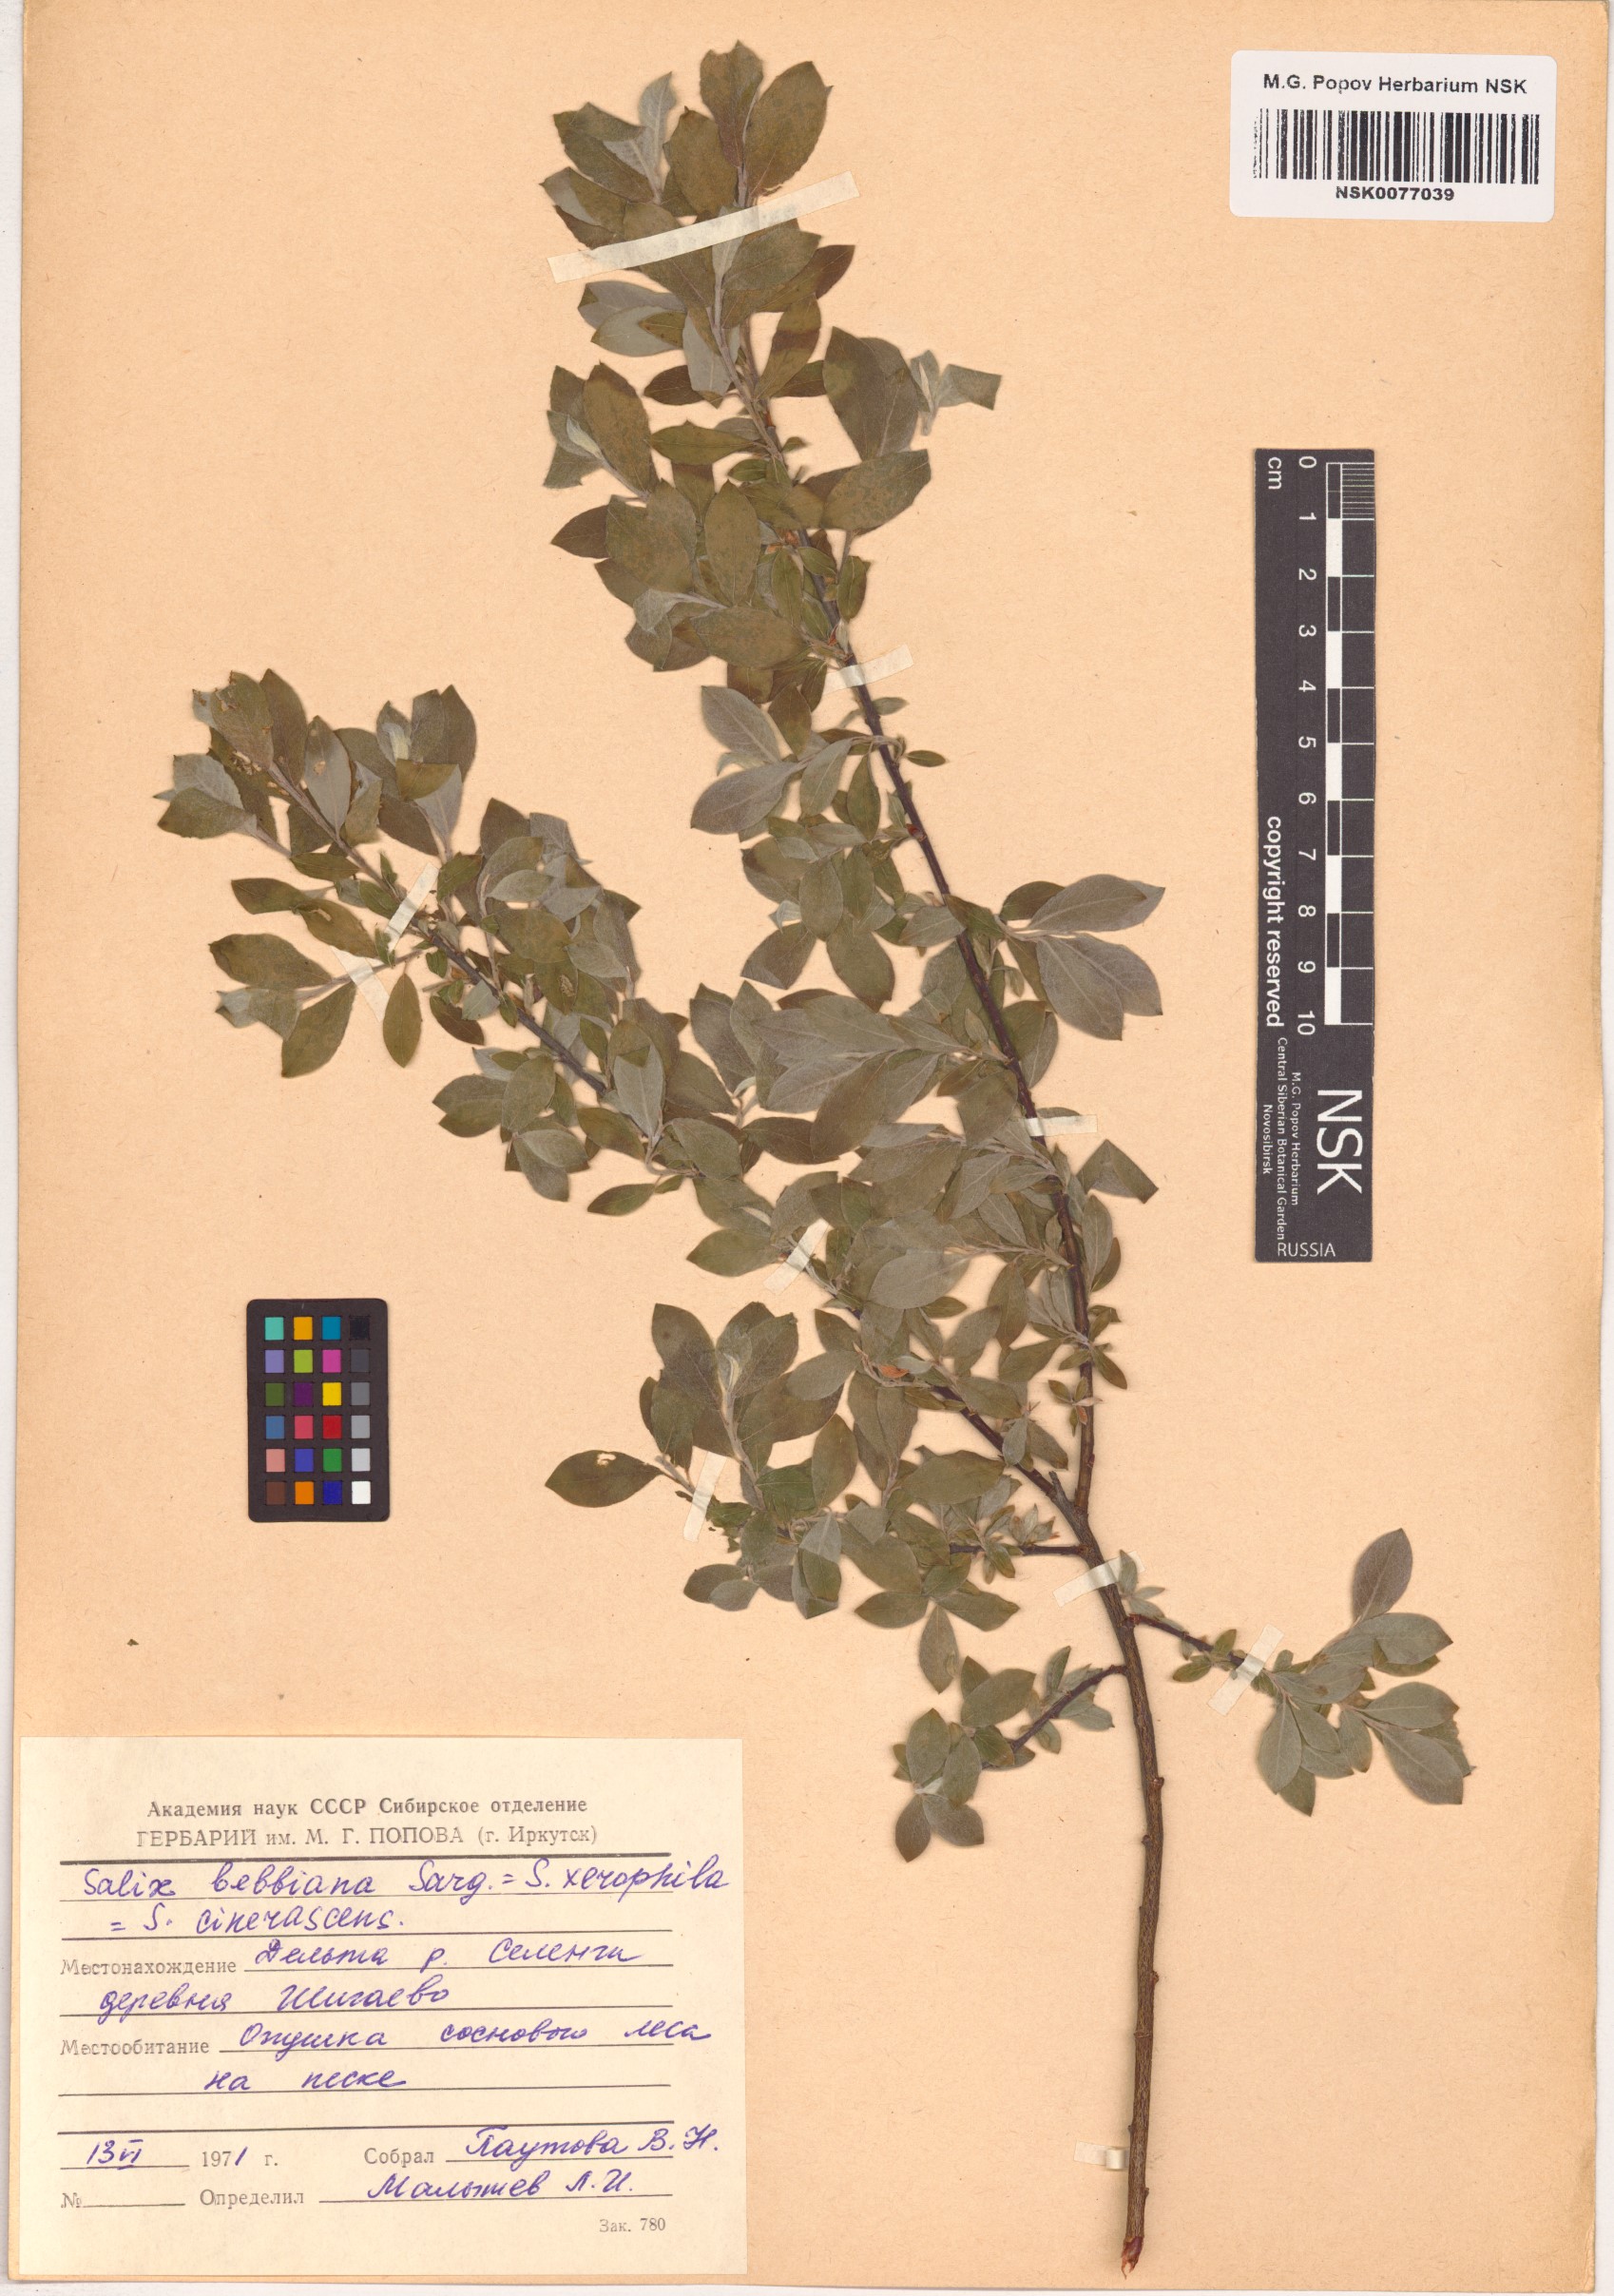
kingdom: Plantae
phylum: Tracheophyta
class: Magnoliopsida
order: Malpighiales
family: Salicaceae
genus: Salix
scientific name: Salix bebbiana
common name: Bebb's willow
